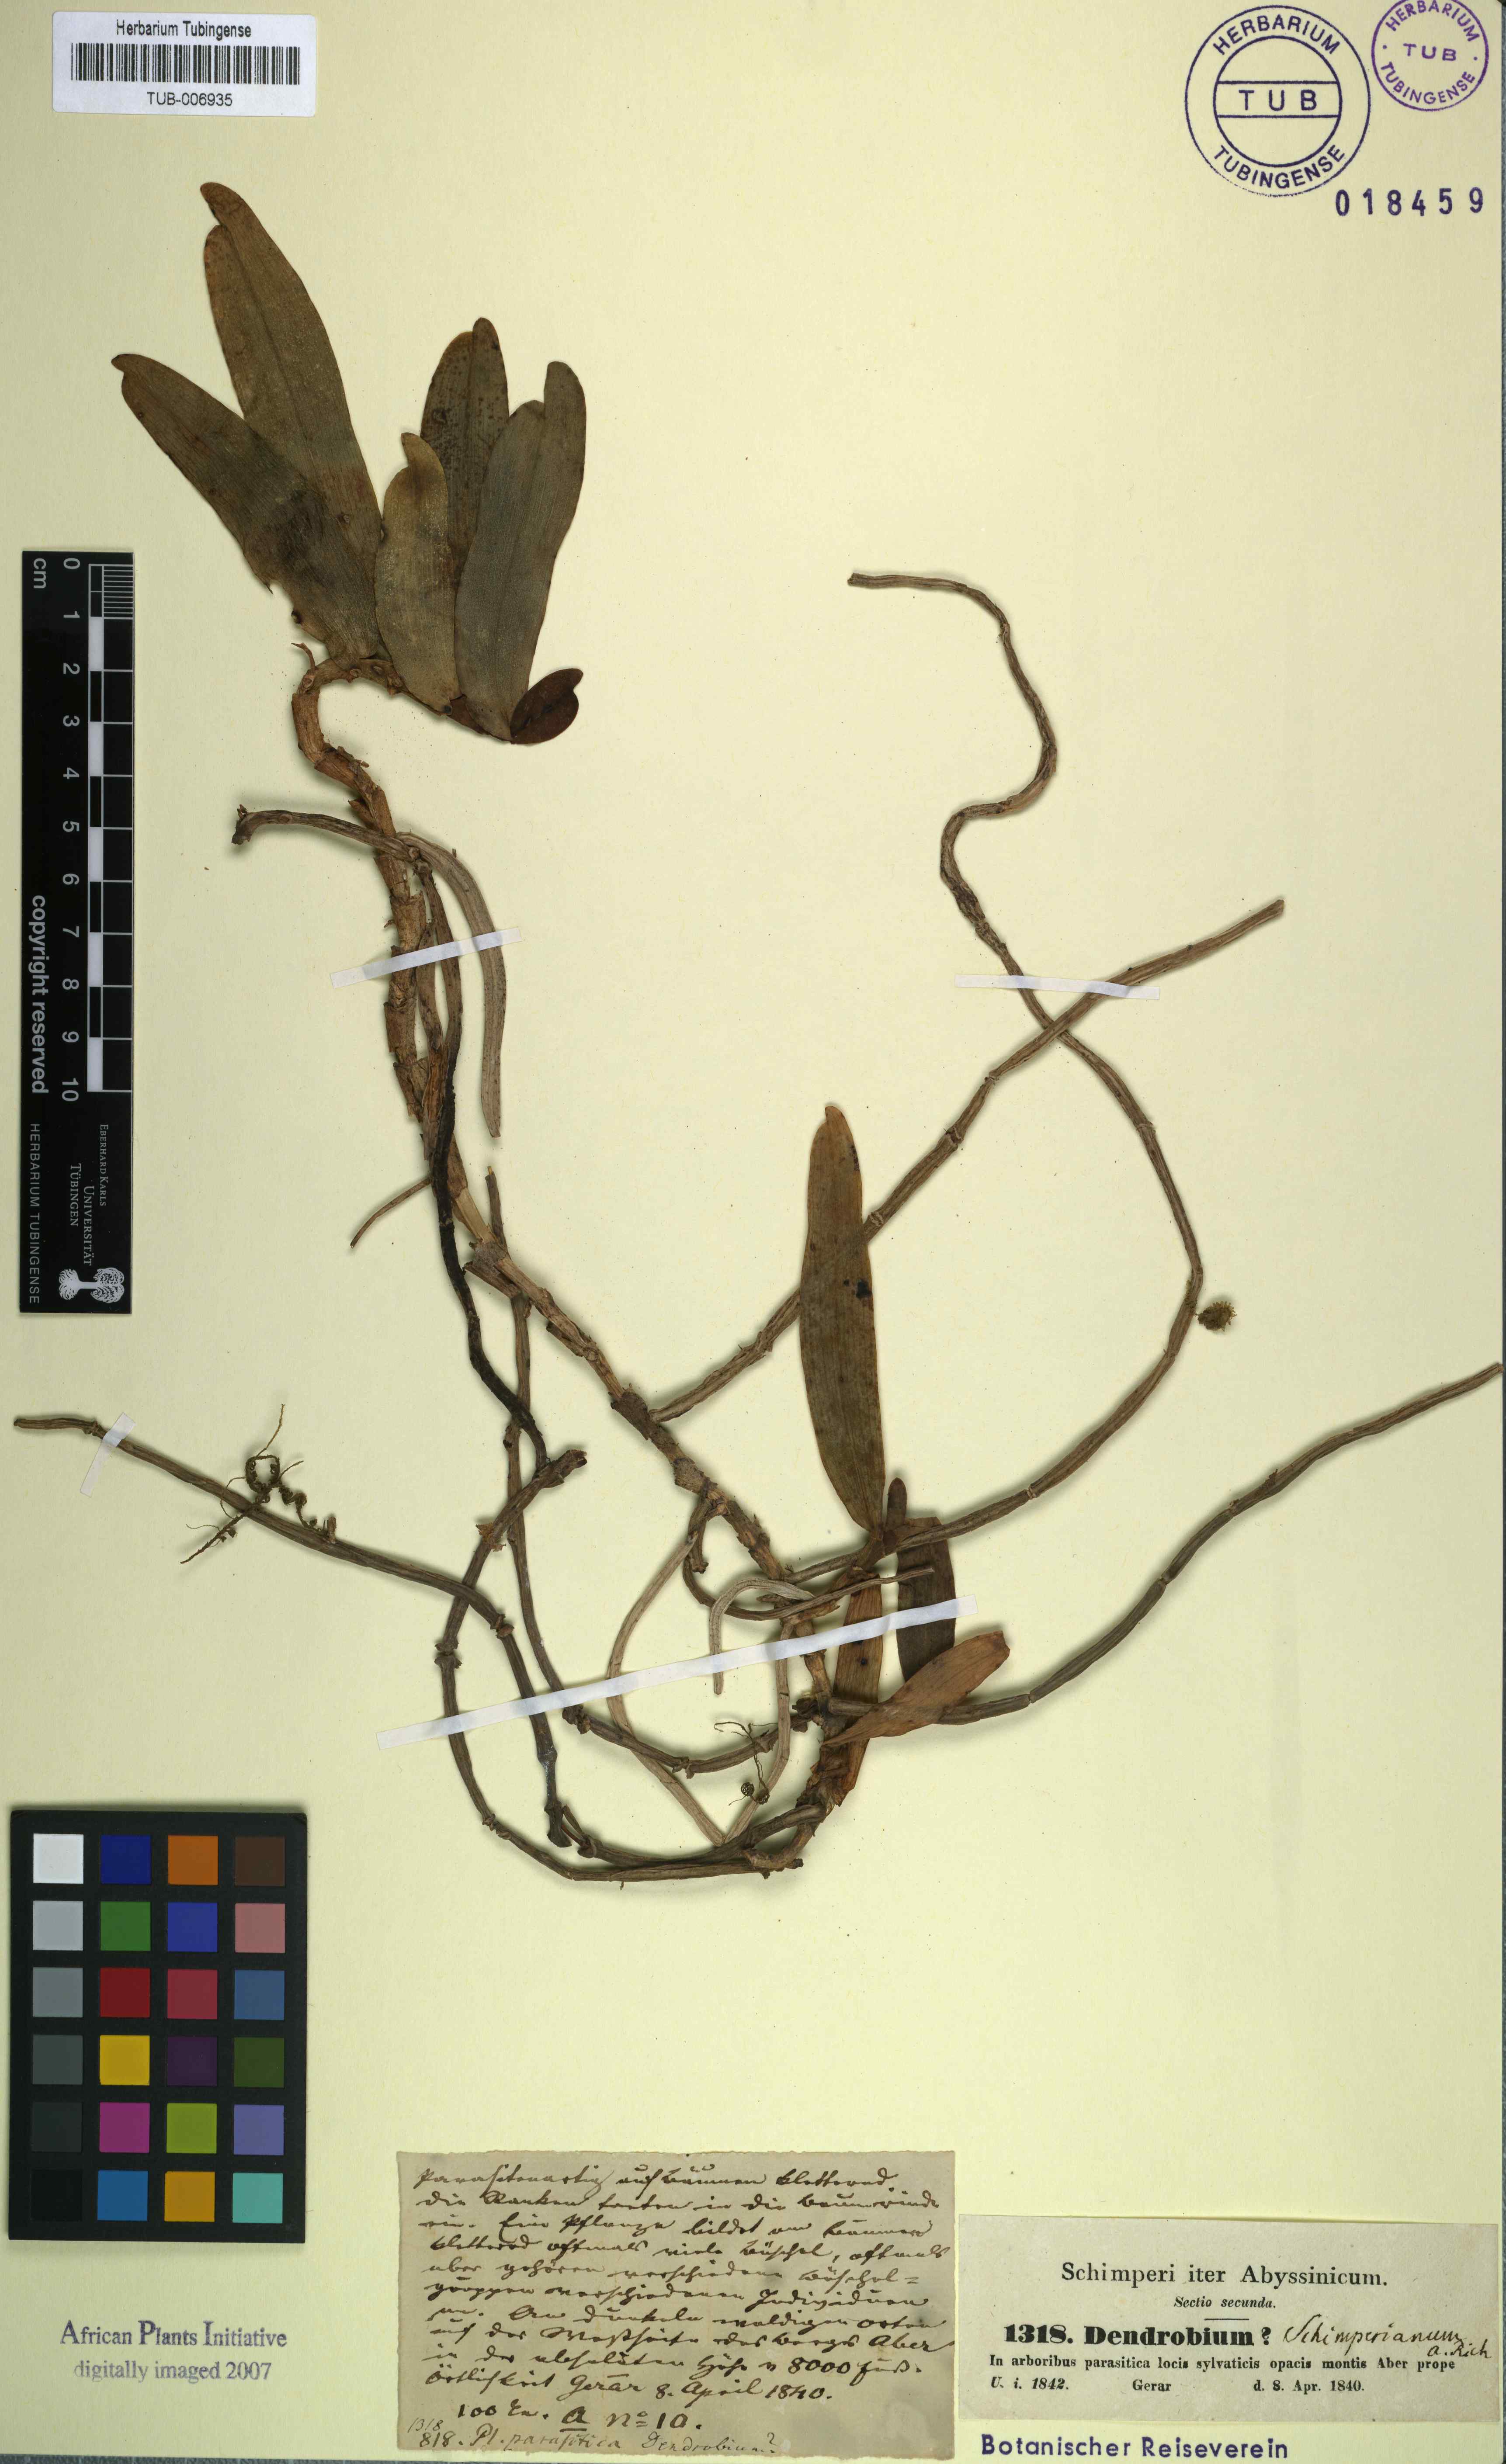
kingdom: Plantae
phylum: Tracheophyta
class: Liliopsida
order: Asparagales
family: Orchidaceae
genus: Rhipidoglossum
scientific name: Rhipidoglossum schimperianum
